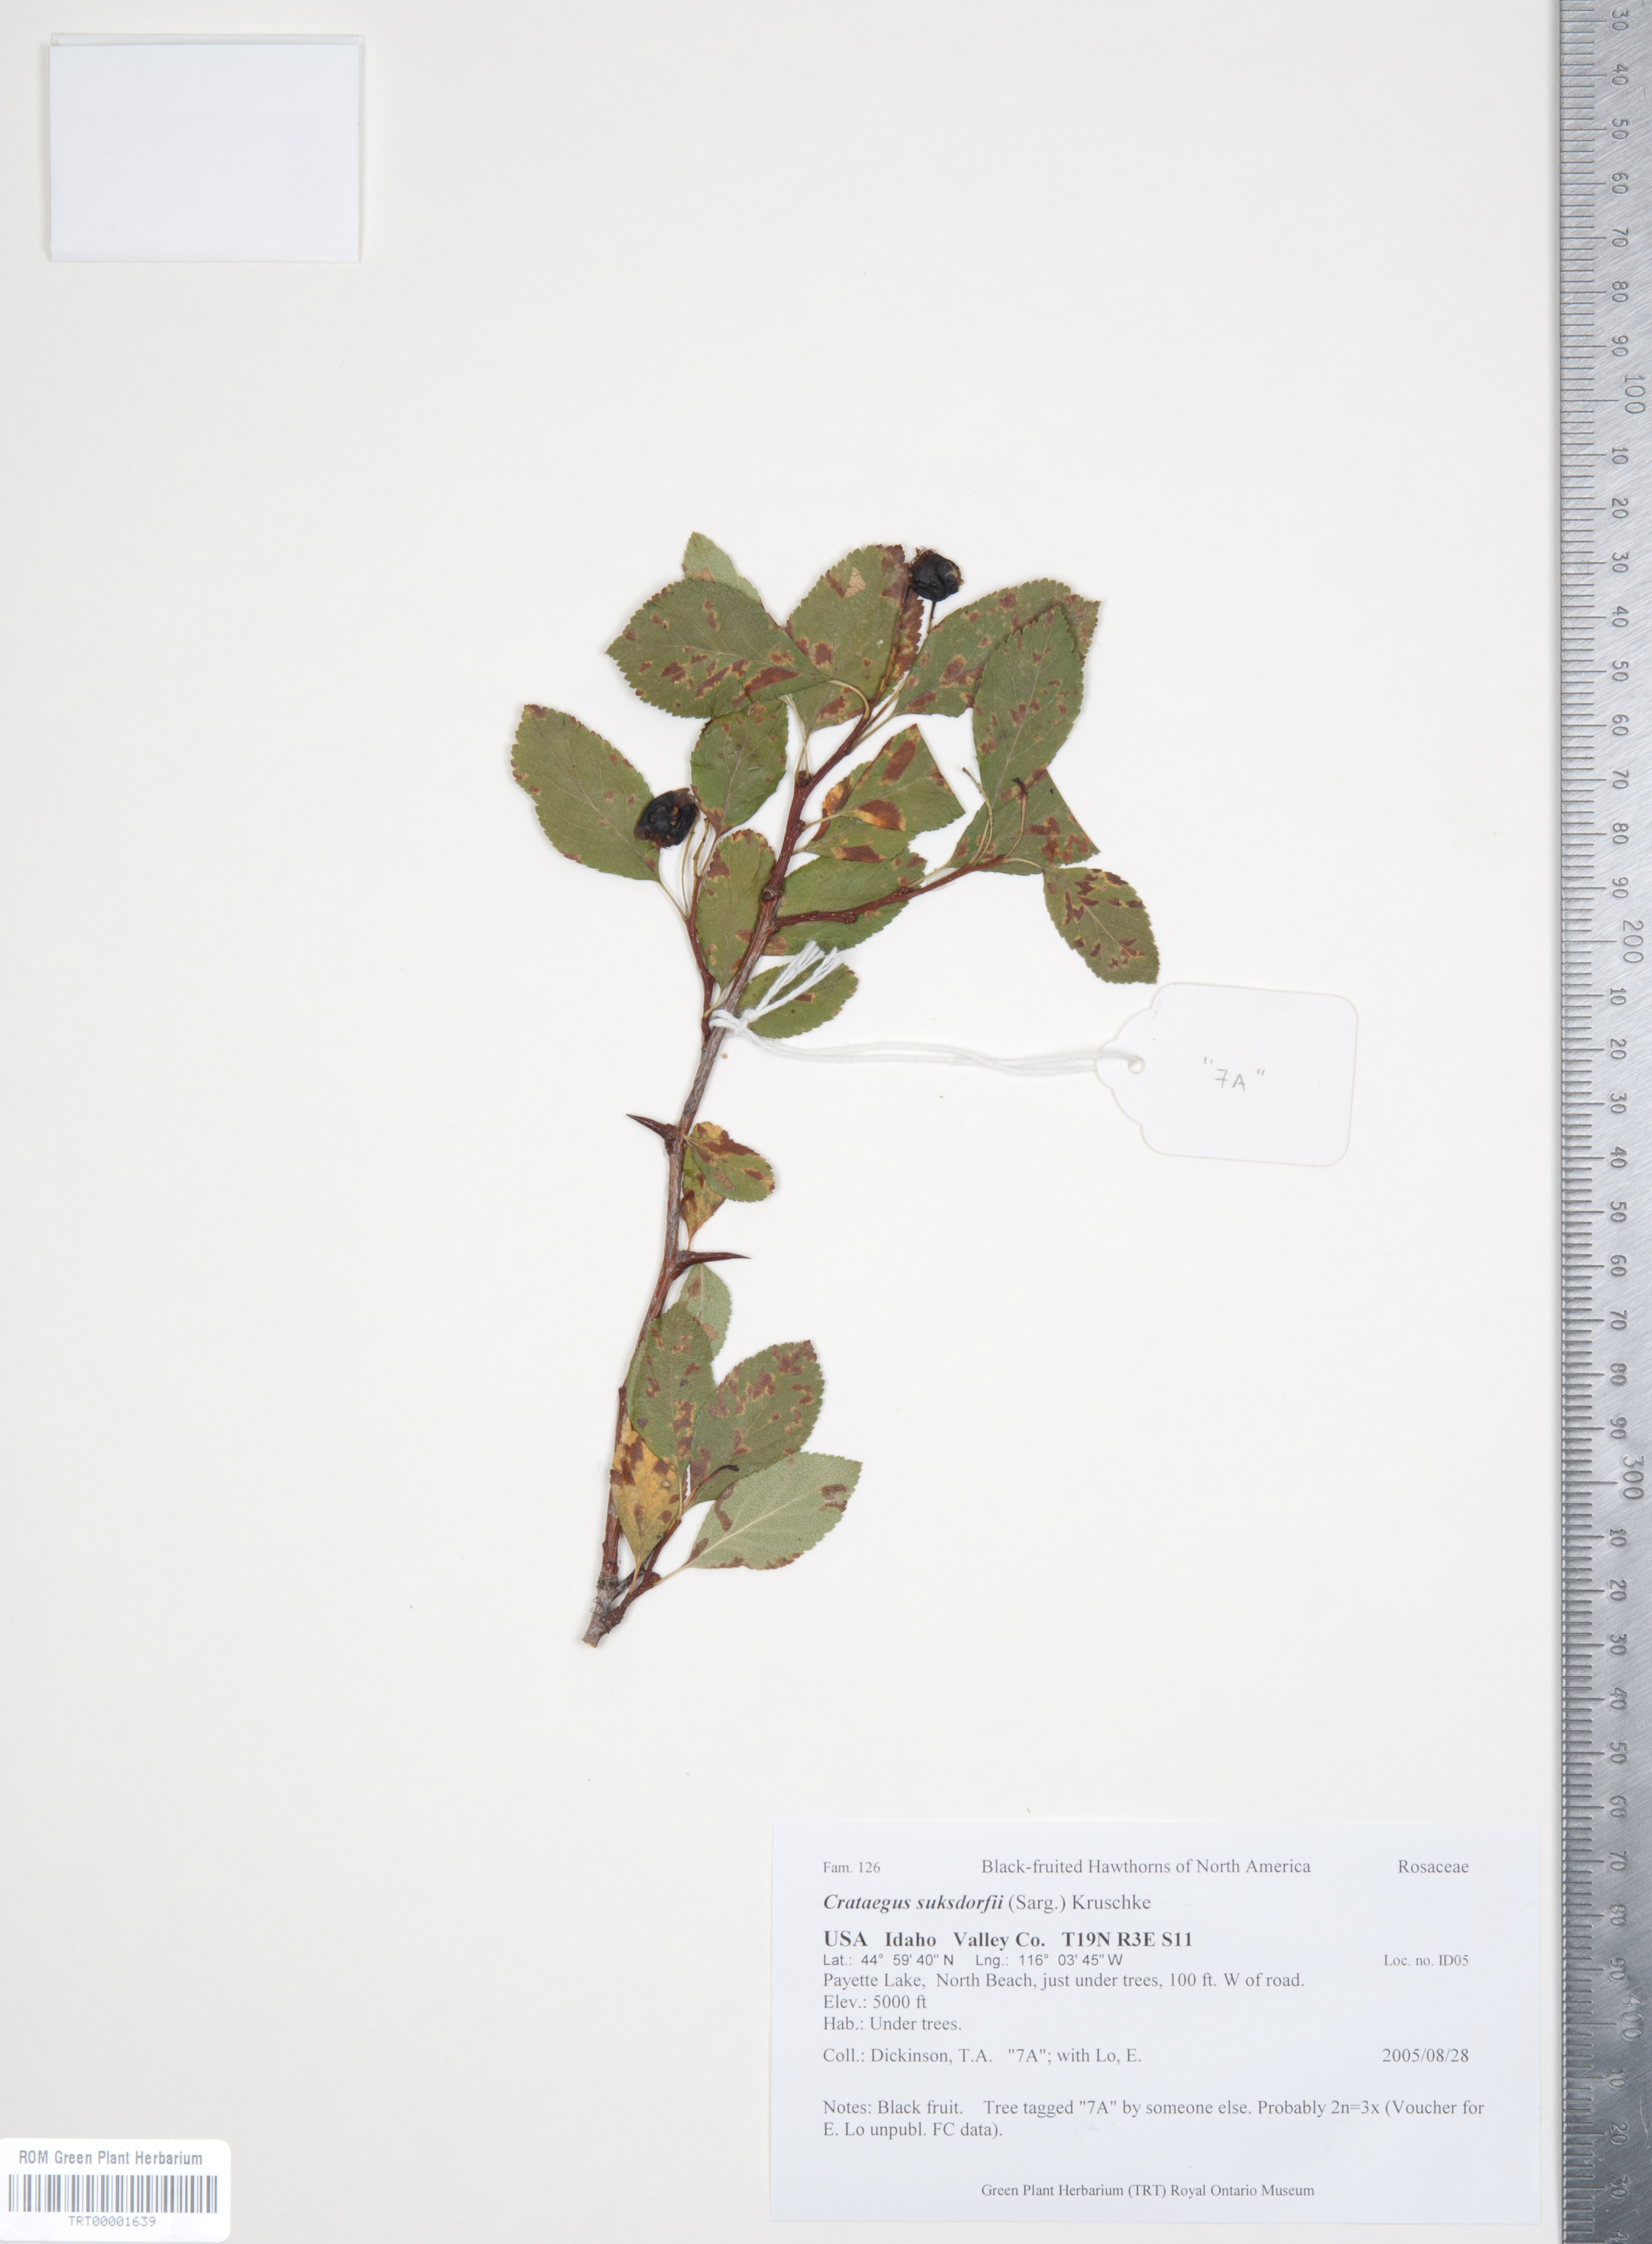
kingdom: Plantae
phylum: Tracheophyta
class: Magnoliopsida
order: Rosales
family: Rosaceae
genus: Crataegus
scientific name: Crataegus gaylussacia
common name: Huckleberry hawthorn
